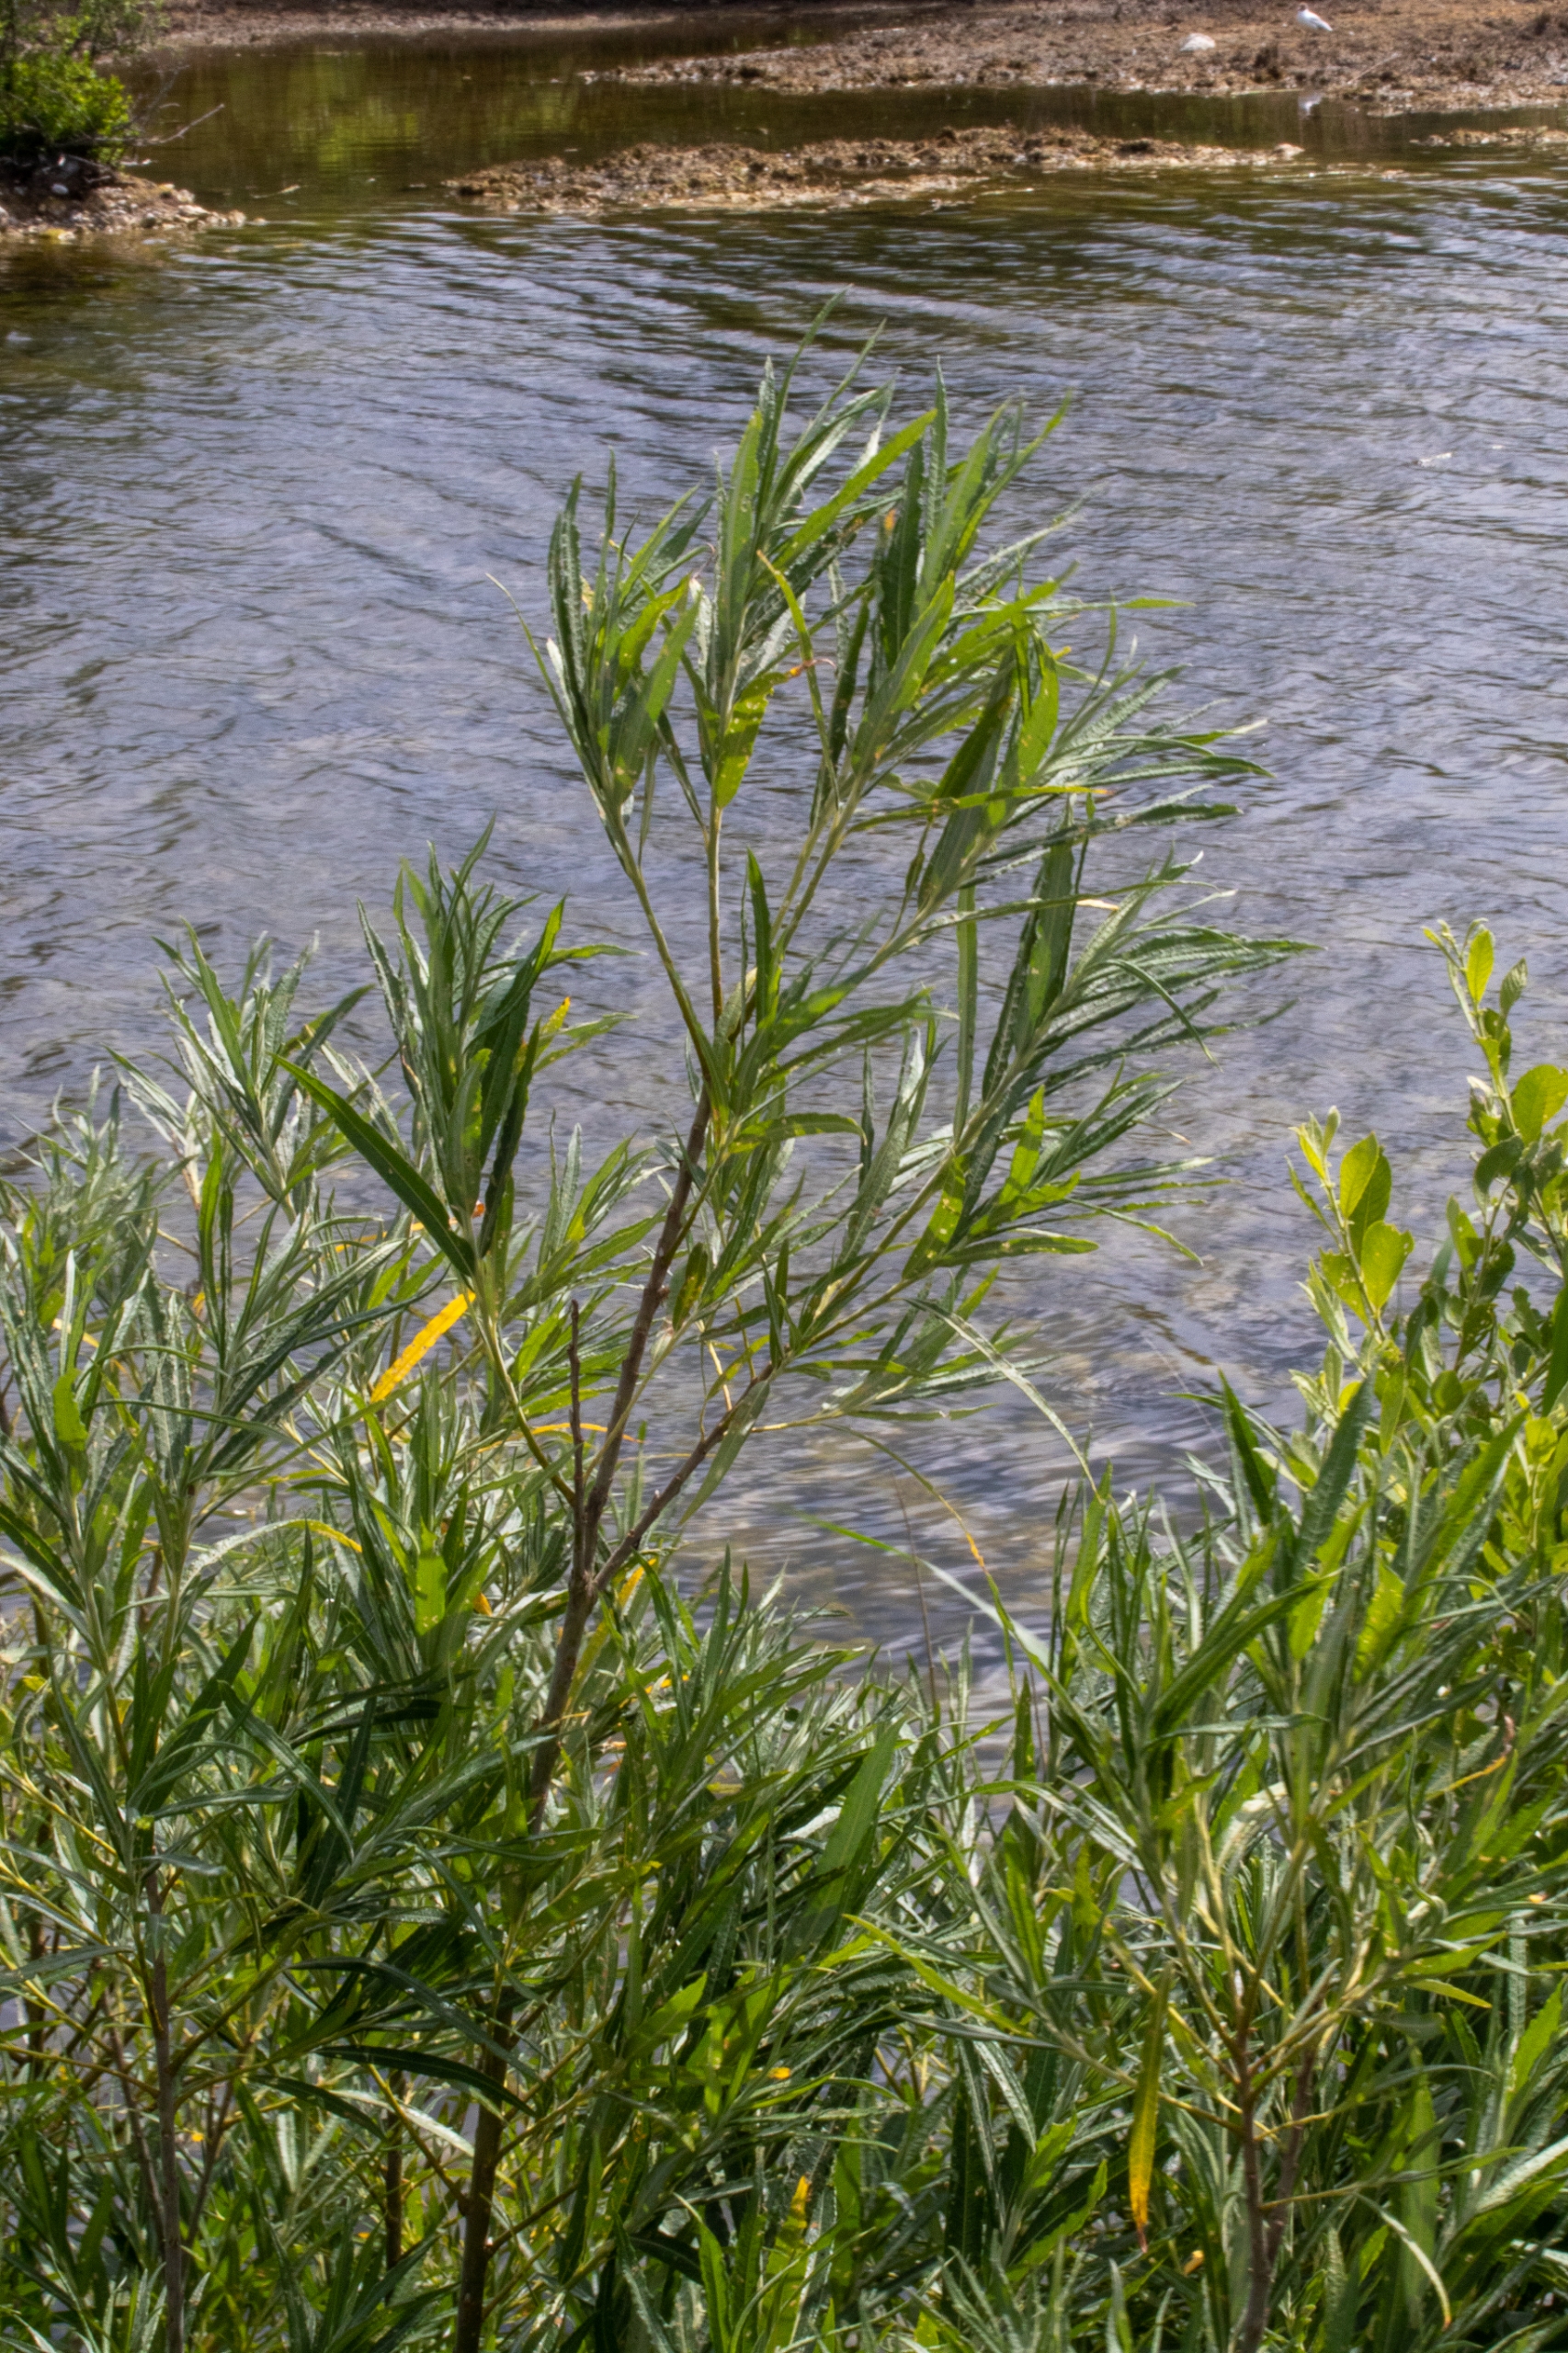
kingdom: Plantae
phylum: Tracheophyta
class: Magnoliopsida
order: Malpighiales
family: Salicaceae
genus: Salix
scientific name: Salix viminalis
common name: Bånd-pil
